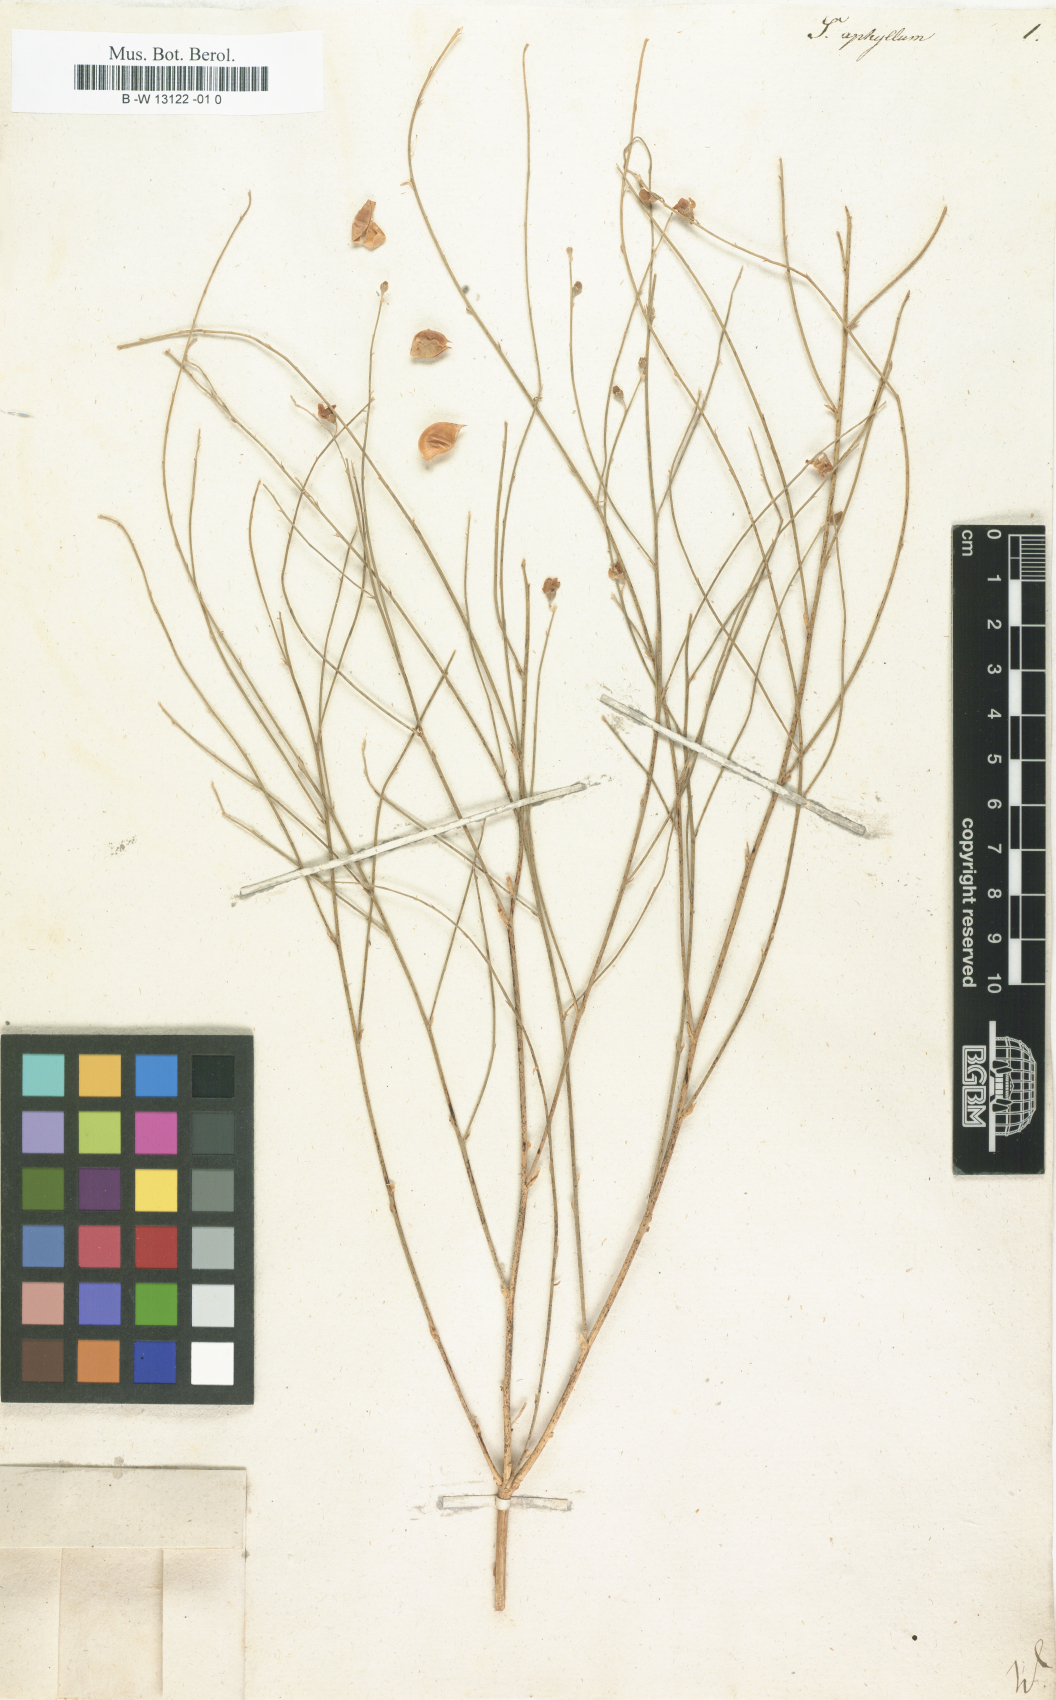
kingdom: Plantae
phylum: Tracheophyta
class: Magnoliopsida
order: Fabales
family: Fabaceae
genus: Eremosparton
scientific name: Eremosparton aphyllum
